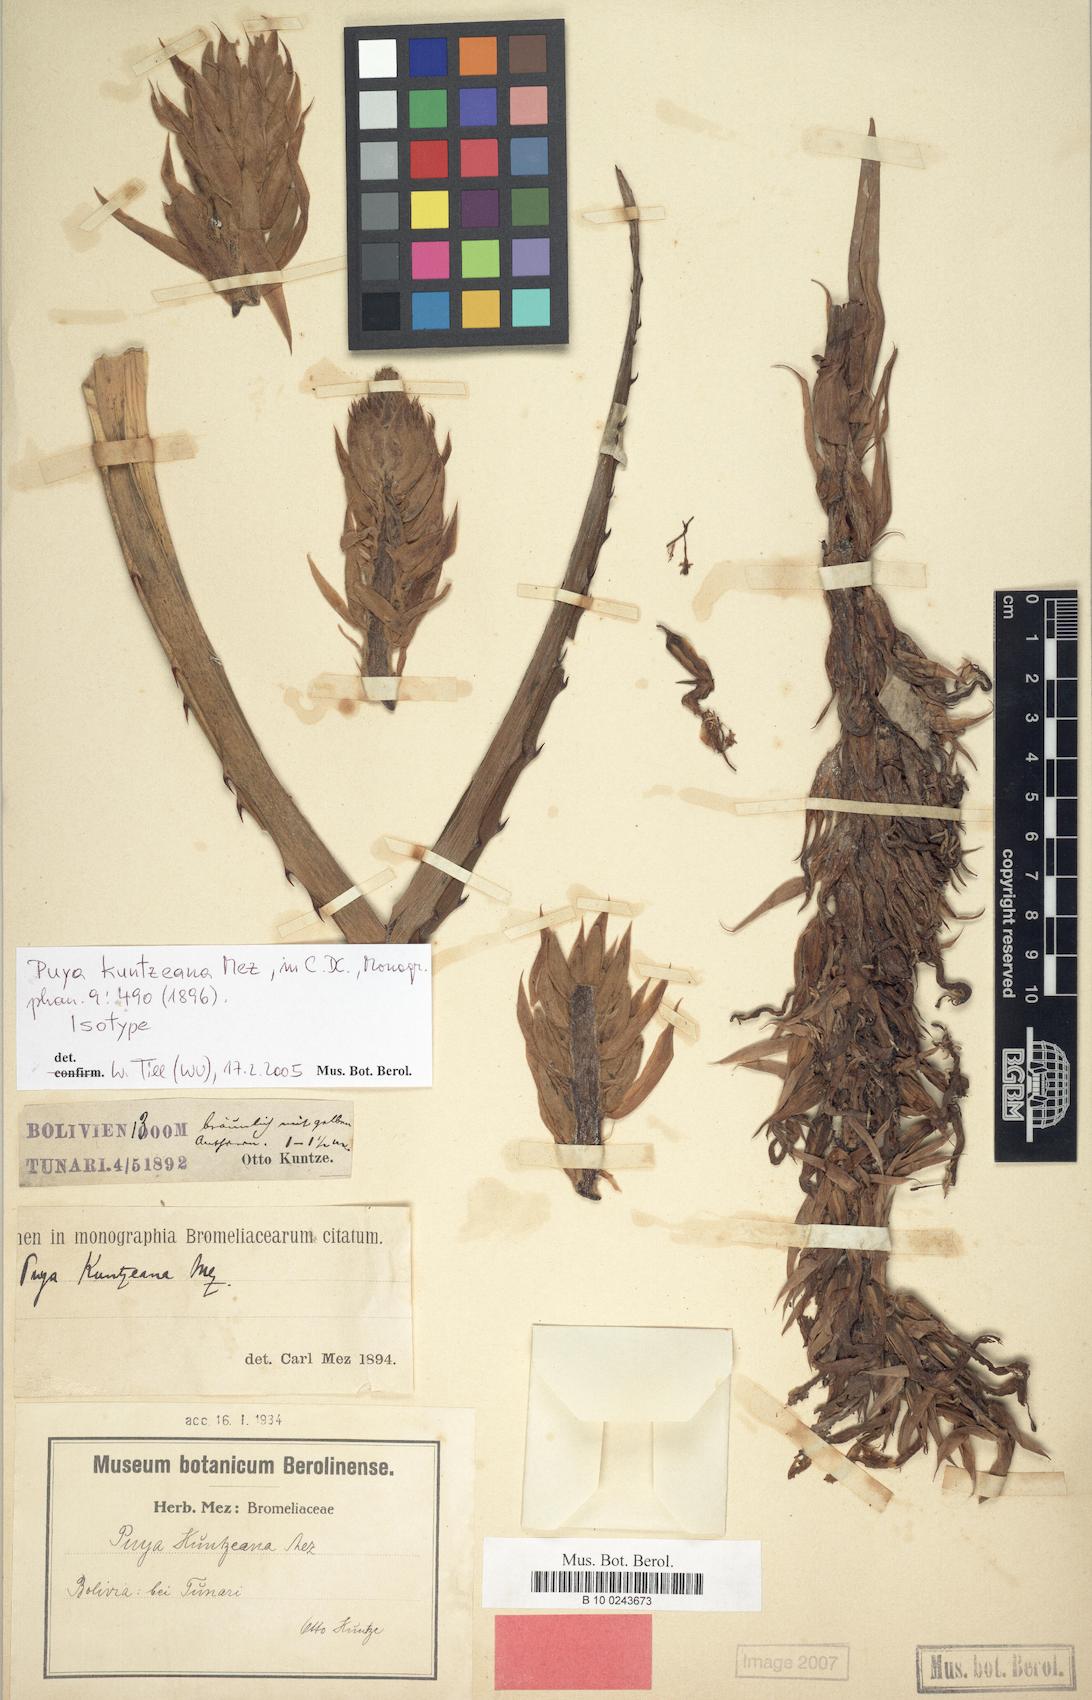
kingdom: Plantae
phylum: Tracheophyta
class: Liliopsida
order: Poales
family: Bromeliaceae
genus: Puya
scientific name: Puya kuntzeana
